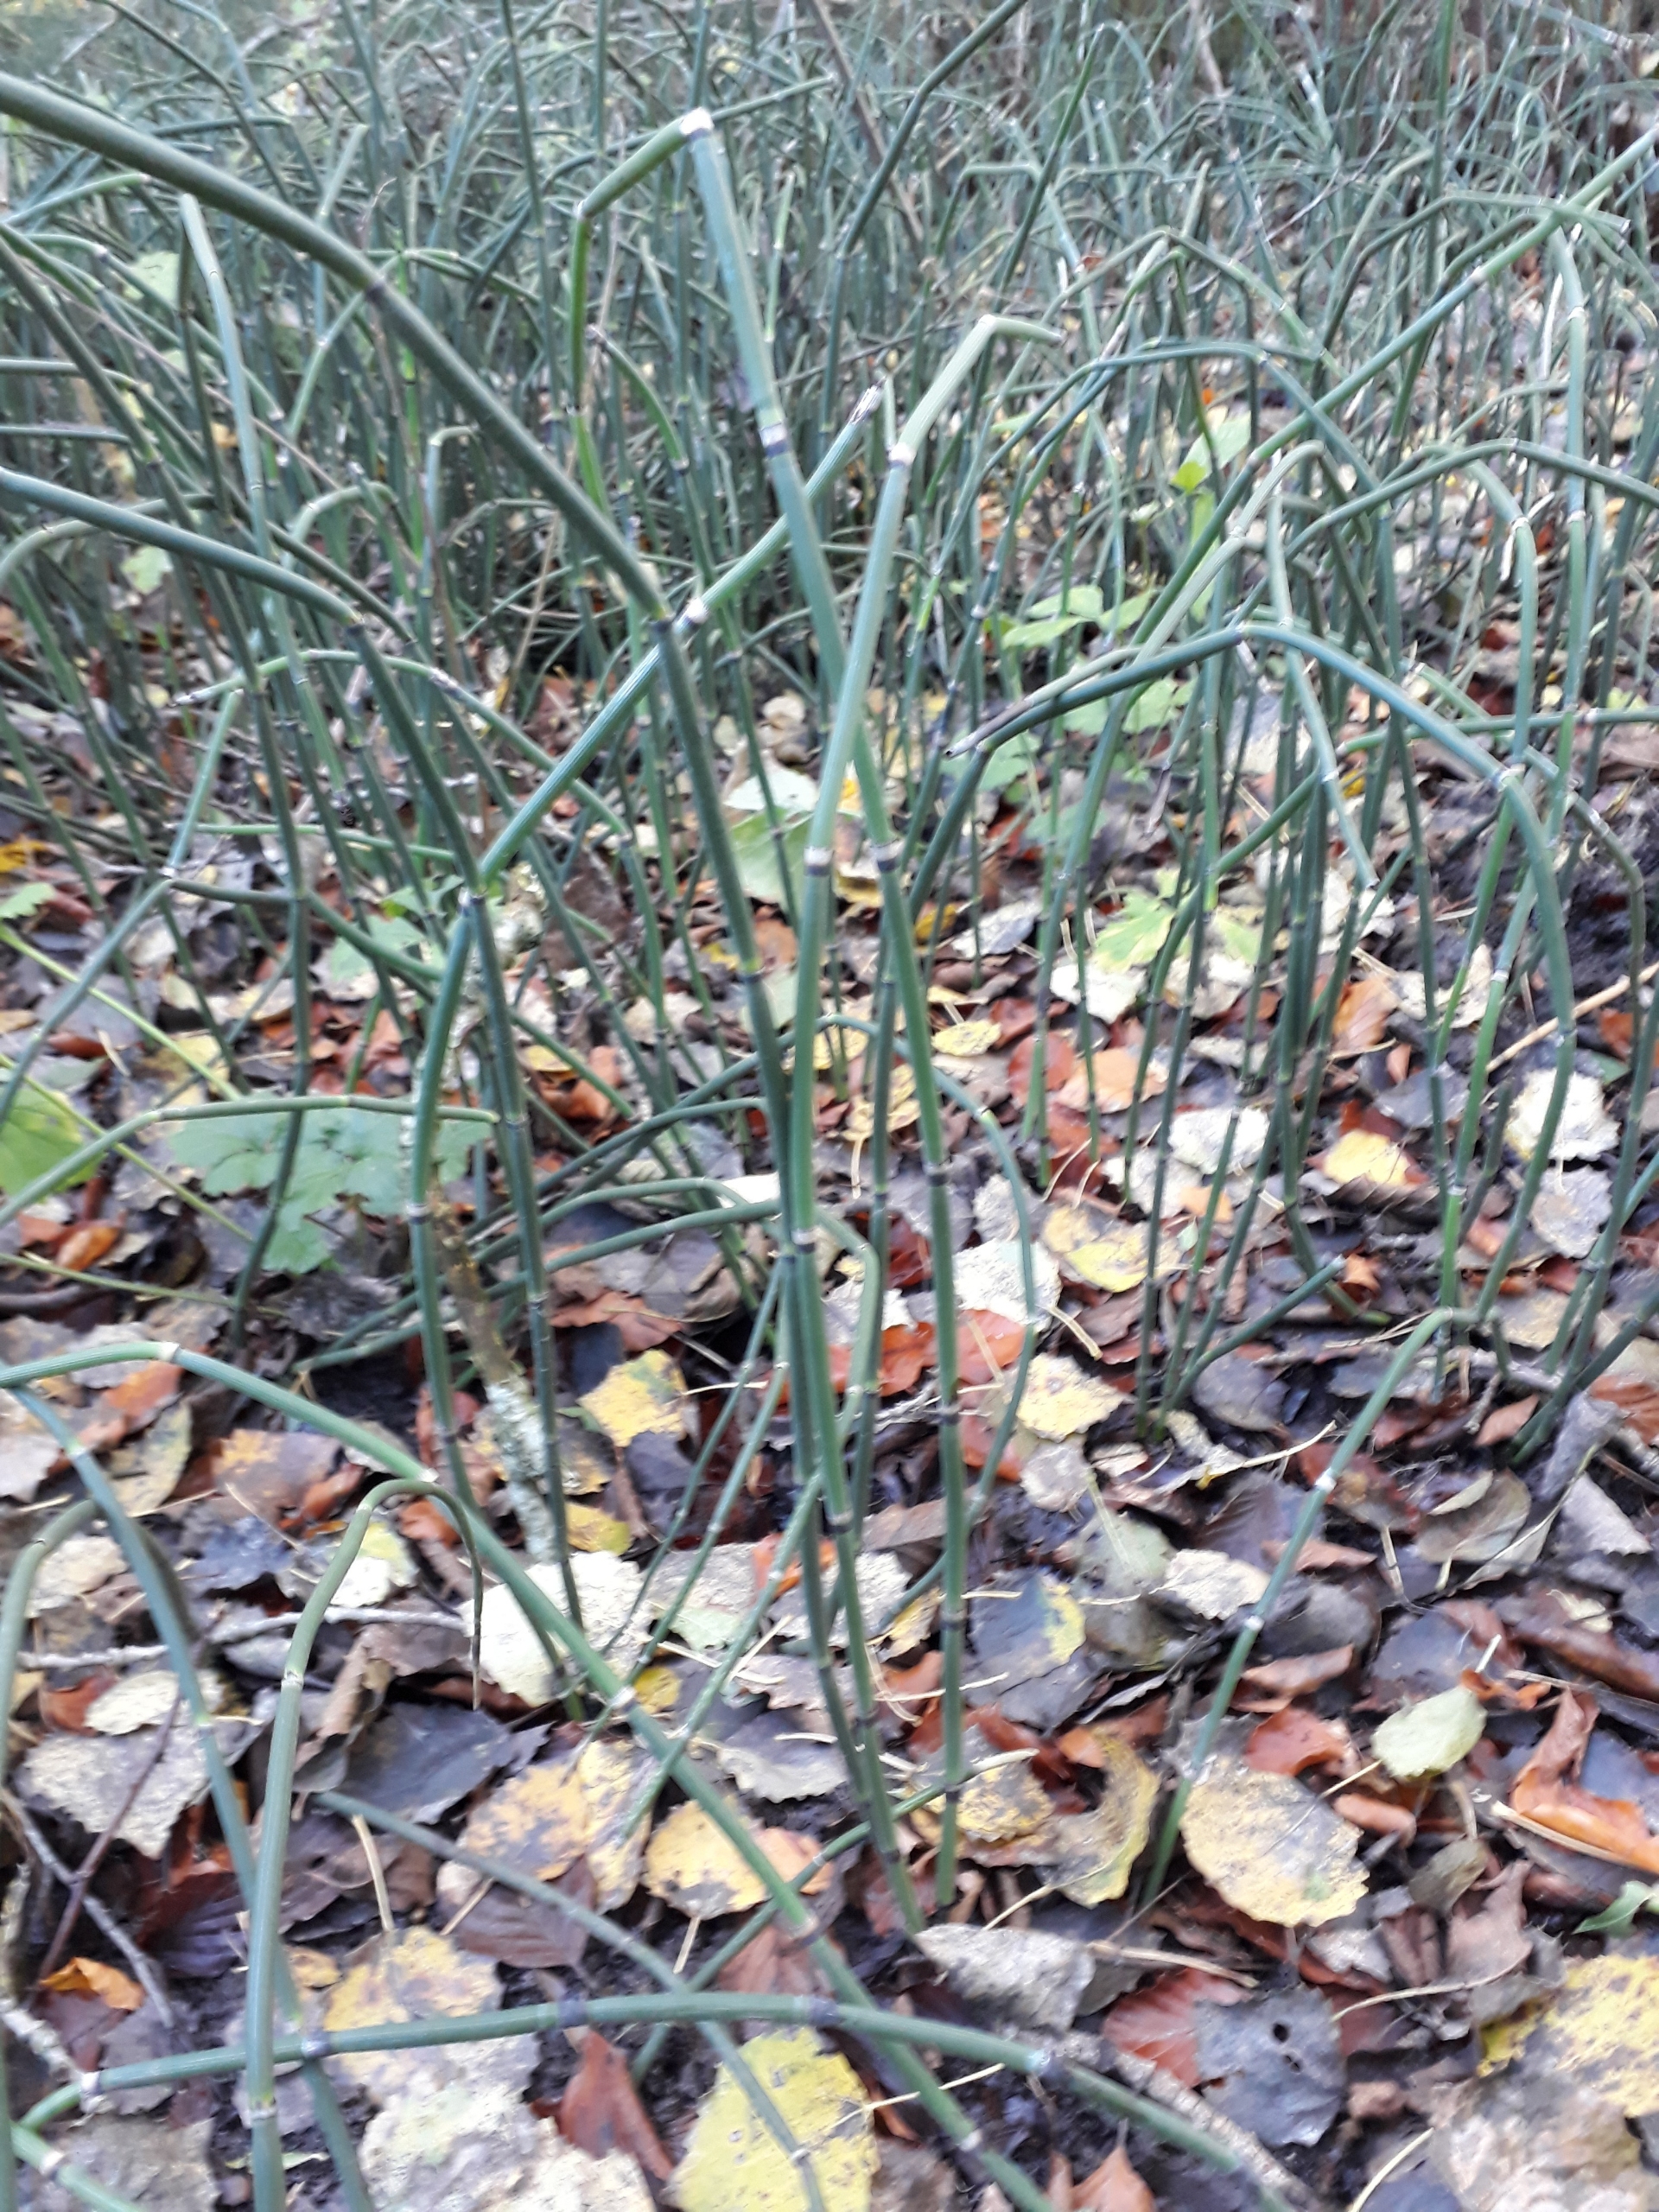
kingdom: Plantae
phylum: Tracheophyta
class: Polypodiopsida
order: Equisetales
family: Equisetaceae
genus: Equisetum
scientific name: Equisetum hyemale
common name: Skavgræs
